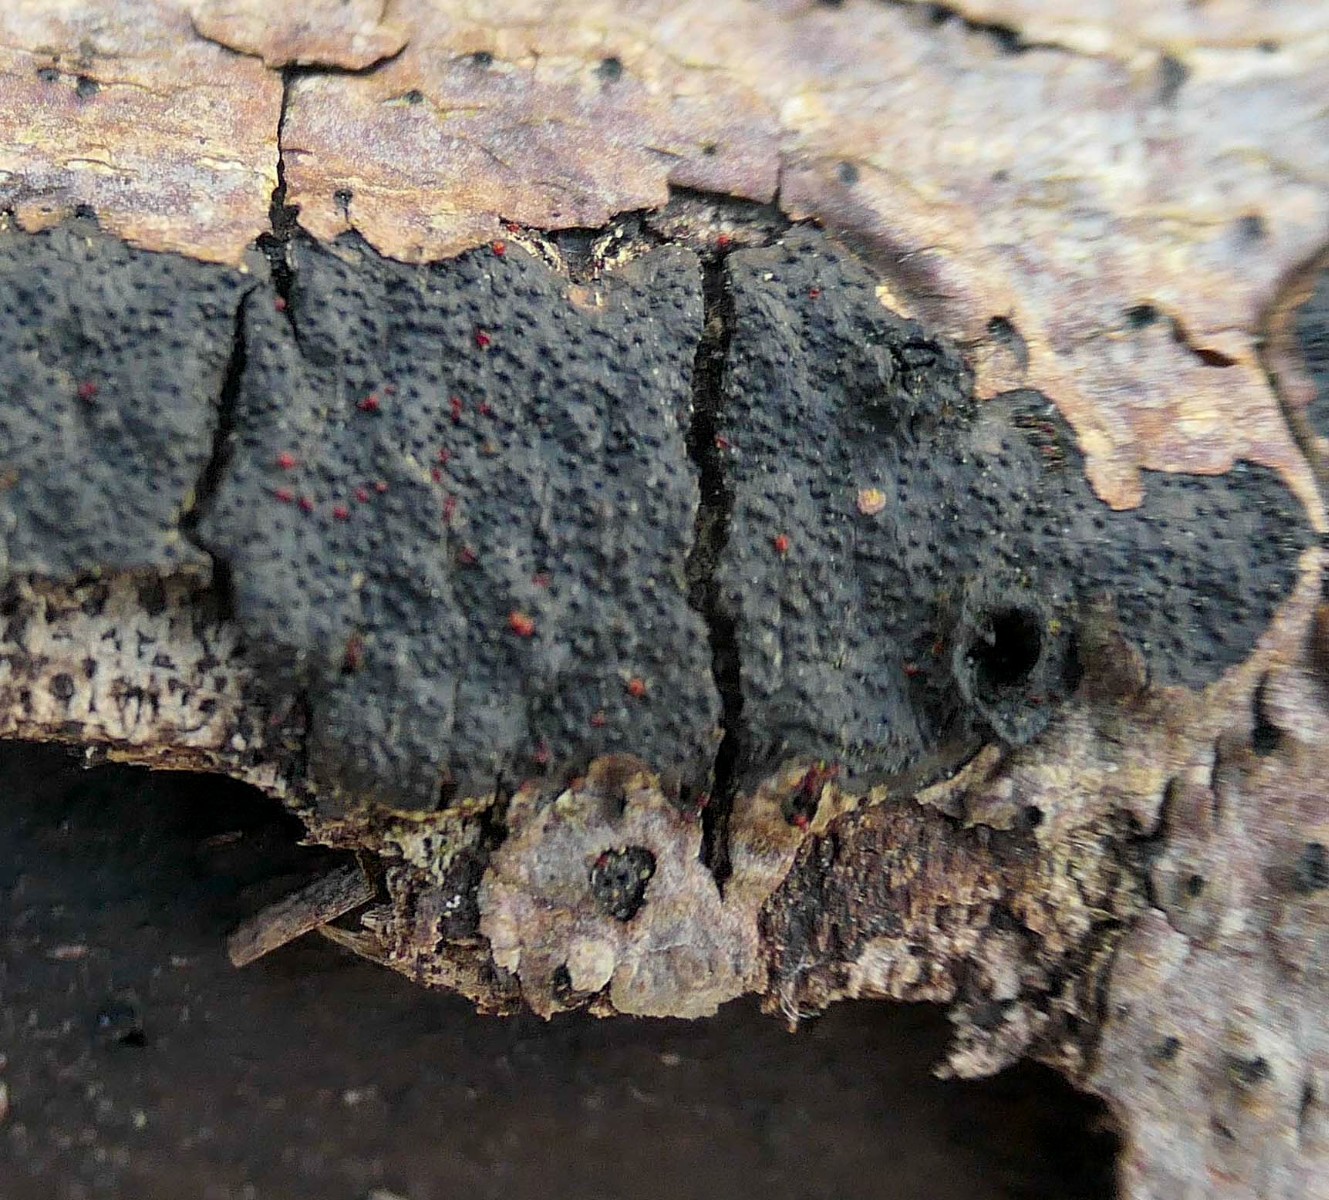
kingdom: Fungi
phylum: Ascomycota
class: Sordariomycetes
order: Hypocreales
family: Nectriaceae
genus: Dialonectria
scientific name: Dialonectria episphaeria
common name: kulskorpe-cinnobersvamp
